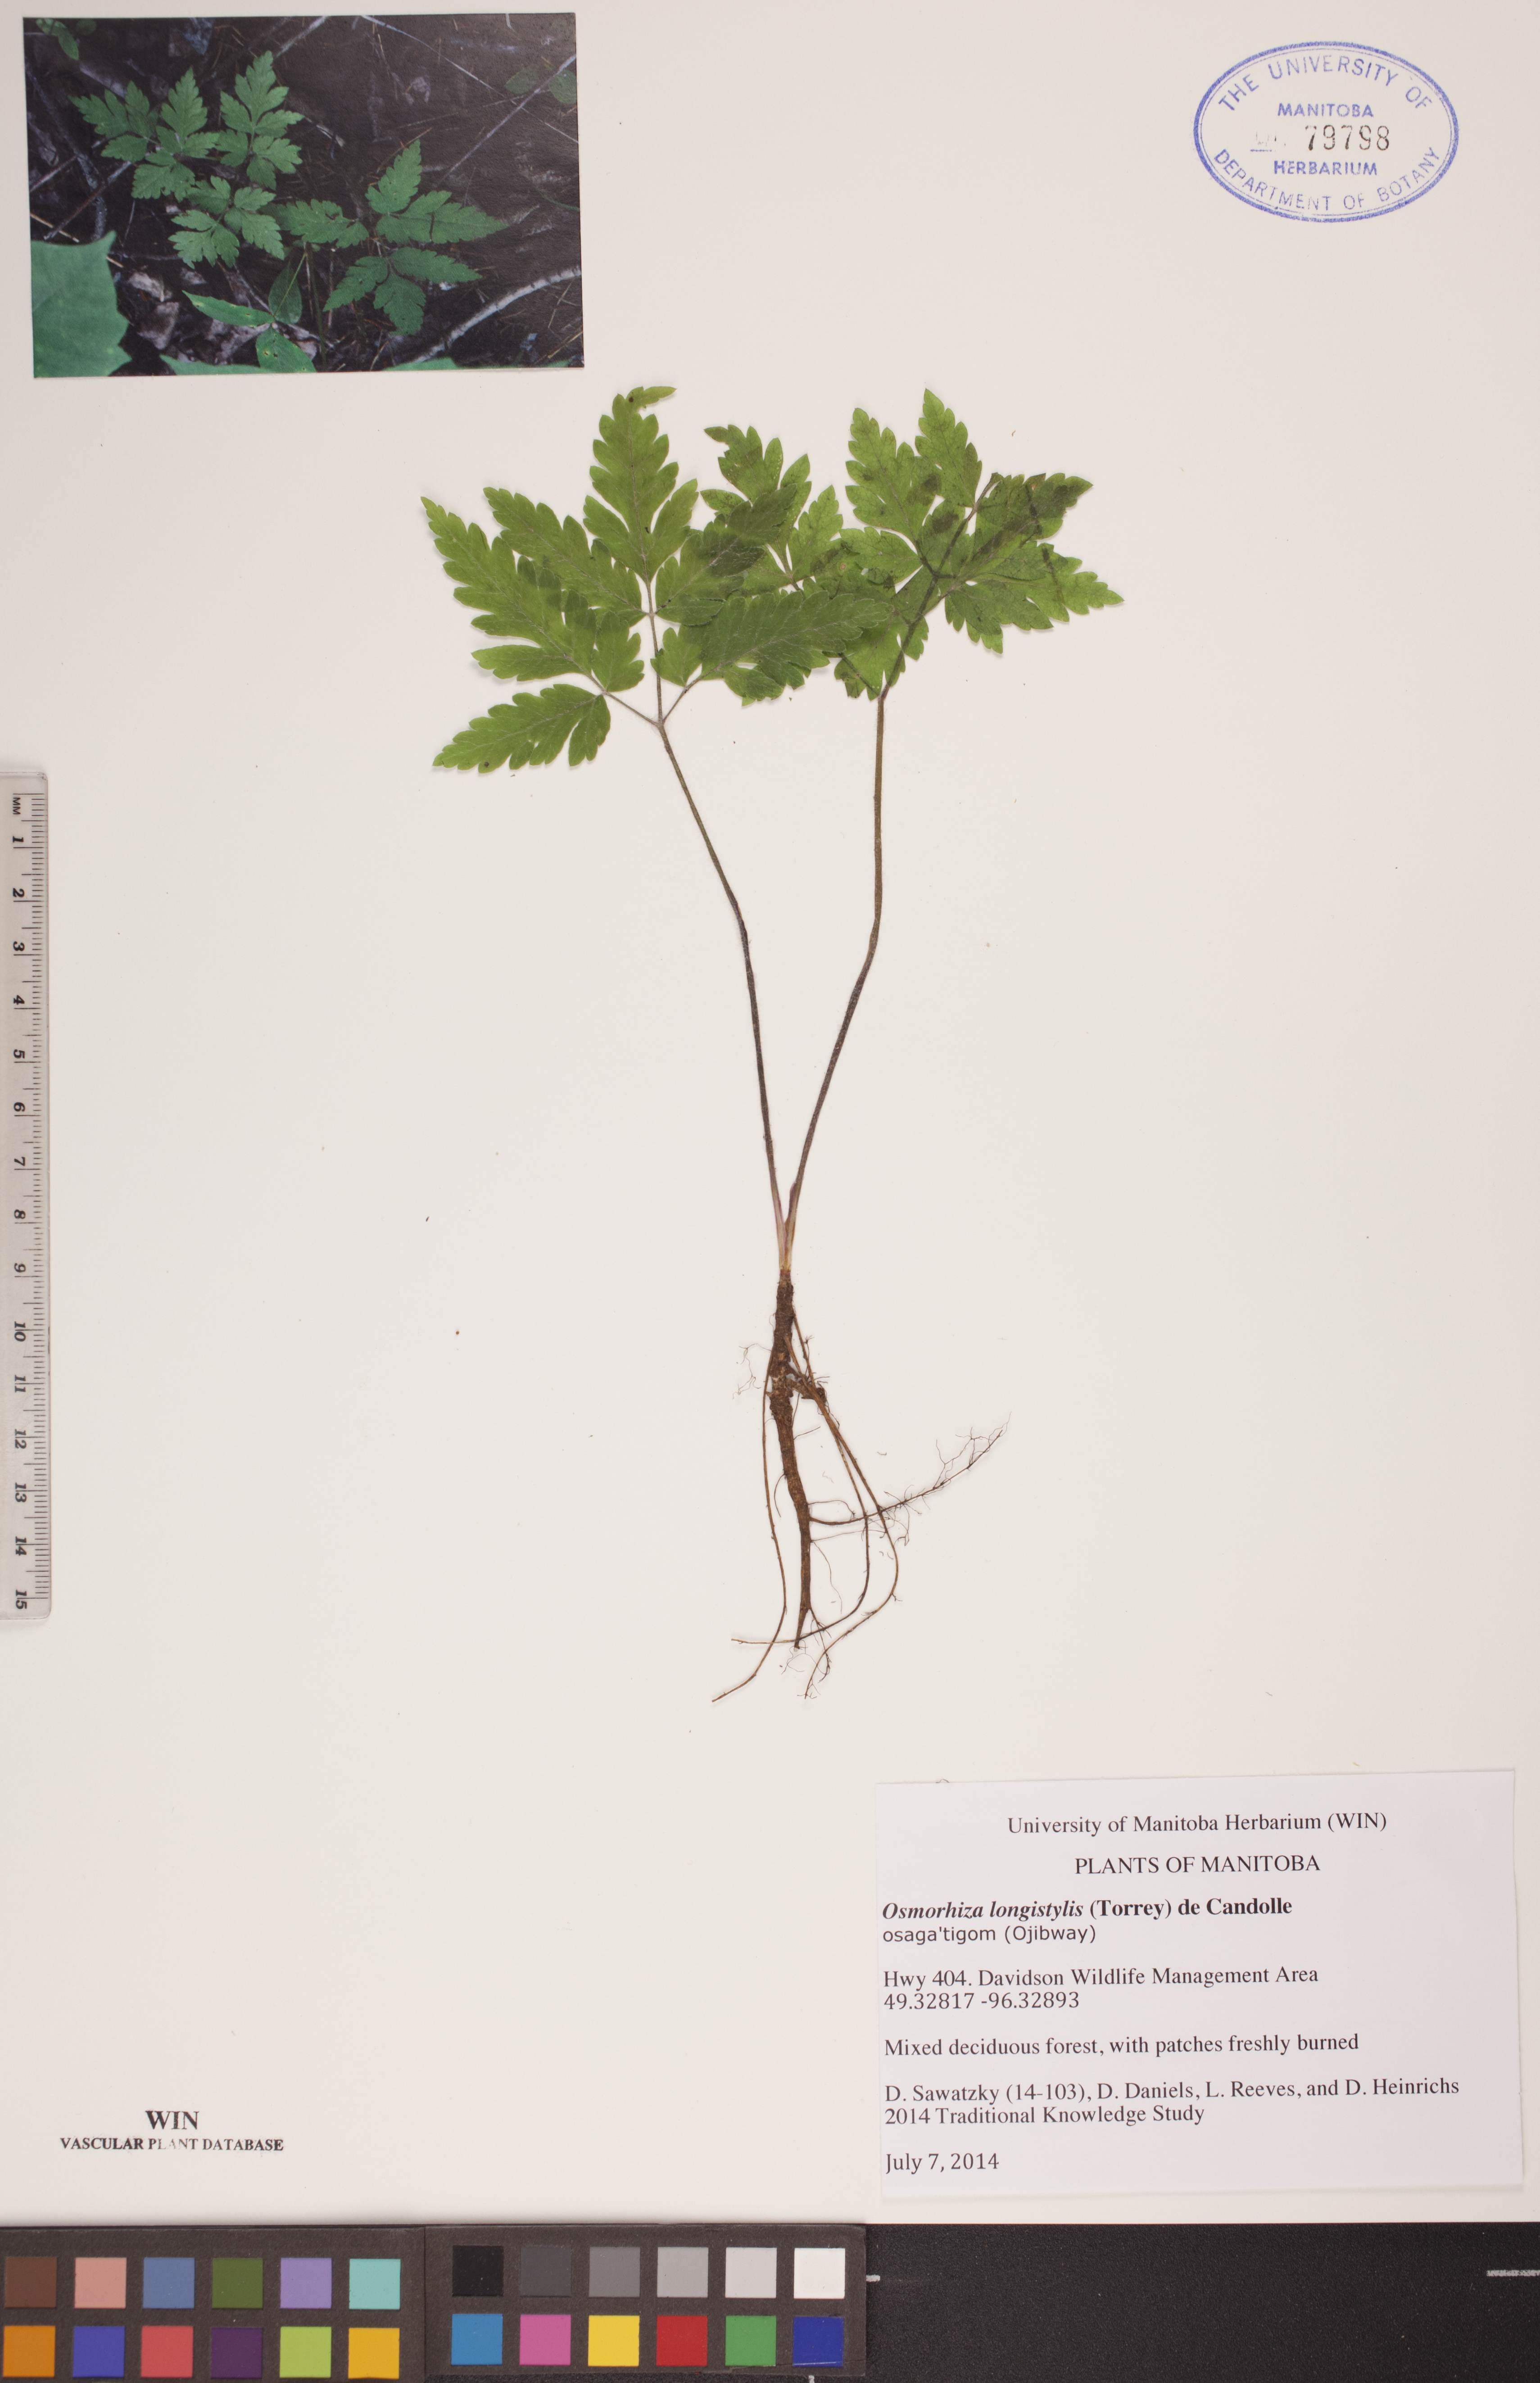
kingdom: Plantae
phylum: Tracheophyta
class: Magnoliopsida
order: Apiales
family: Apiaceae
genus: Osmorhiza
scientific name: Osmorhiza longistylis
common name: Smooth sweet cicely
